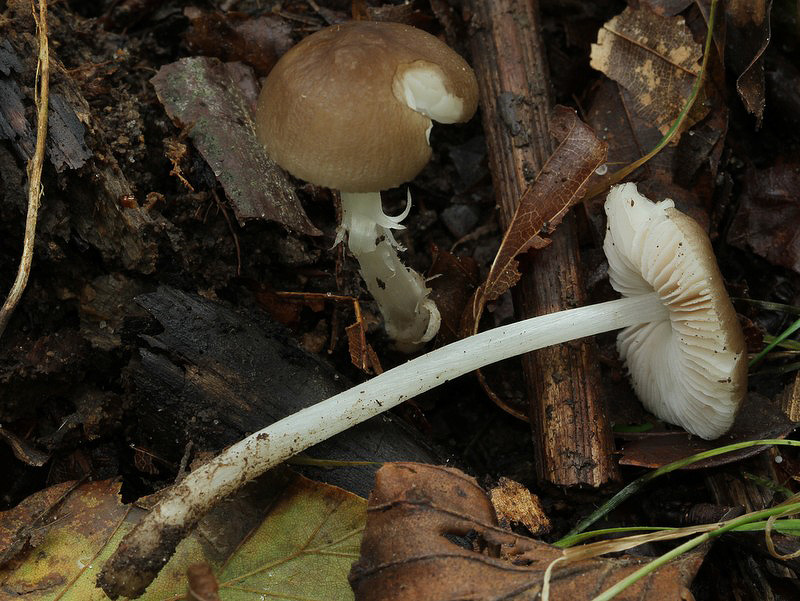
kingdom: Fungi
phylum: Basidiomycota
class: Agaricomycetes
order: Agaricales
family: Pluteaceae
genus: Pluteus
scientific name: Pluteus spinosae
